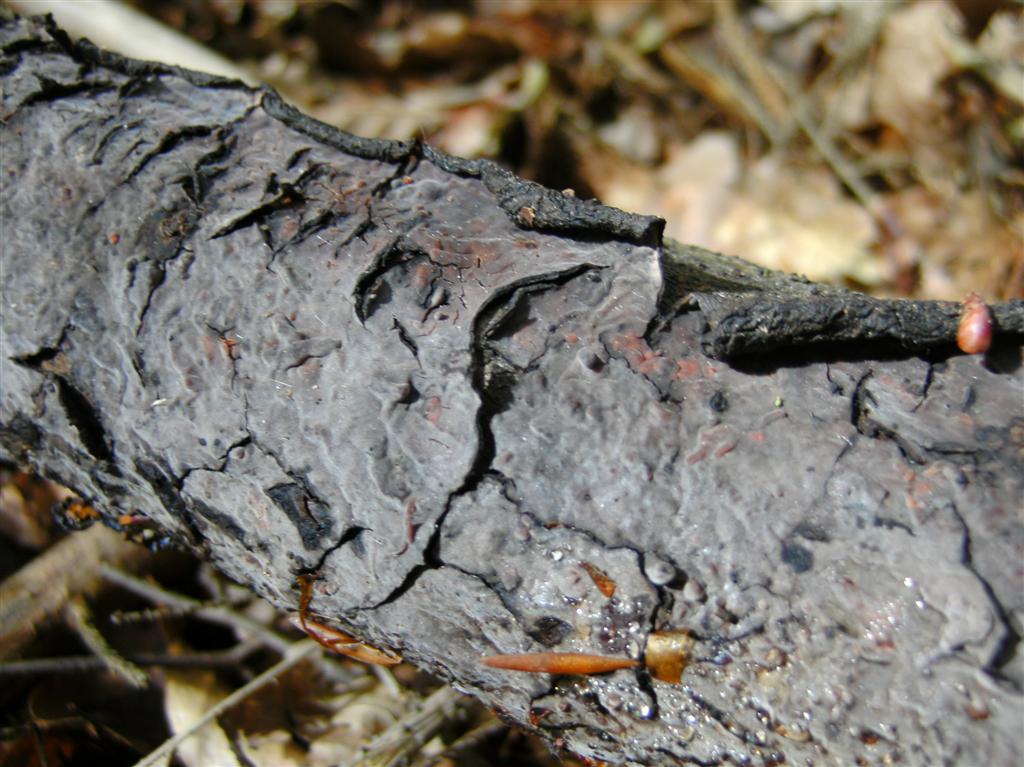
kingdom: Fungi
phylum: Basidiomycota
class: Agaricomycetes
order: Russulales
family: Peniophoraceae
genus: Peniophora
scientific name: Peniophora quercina
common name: ege-voksskind
